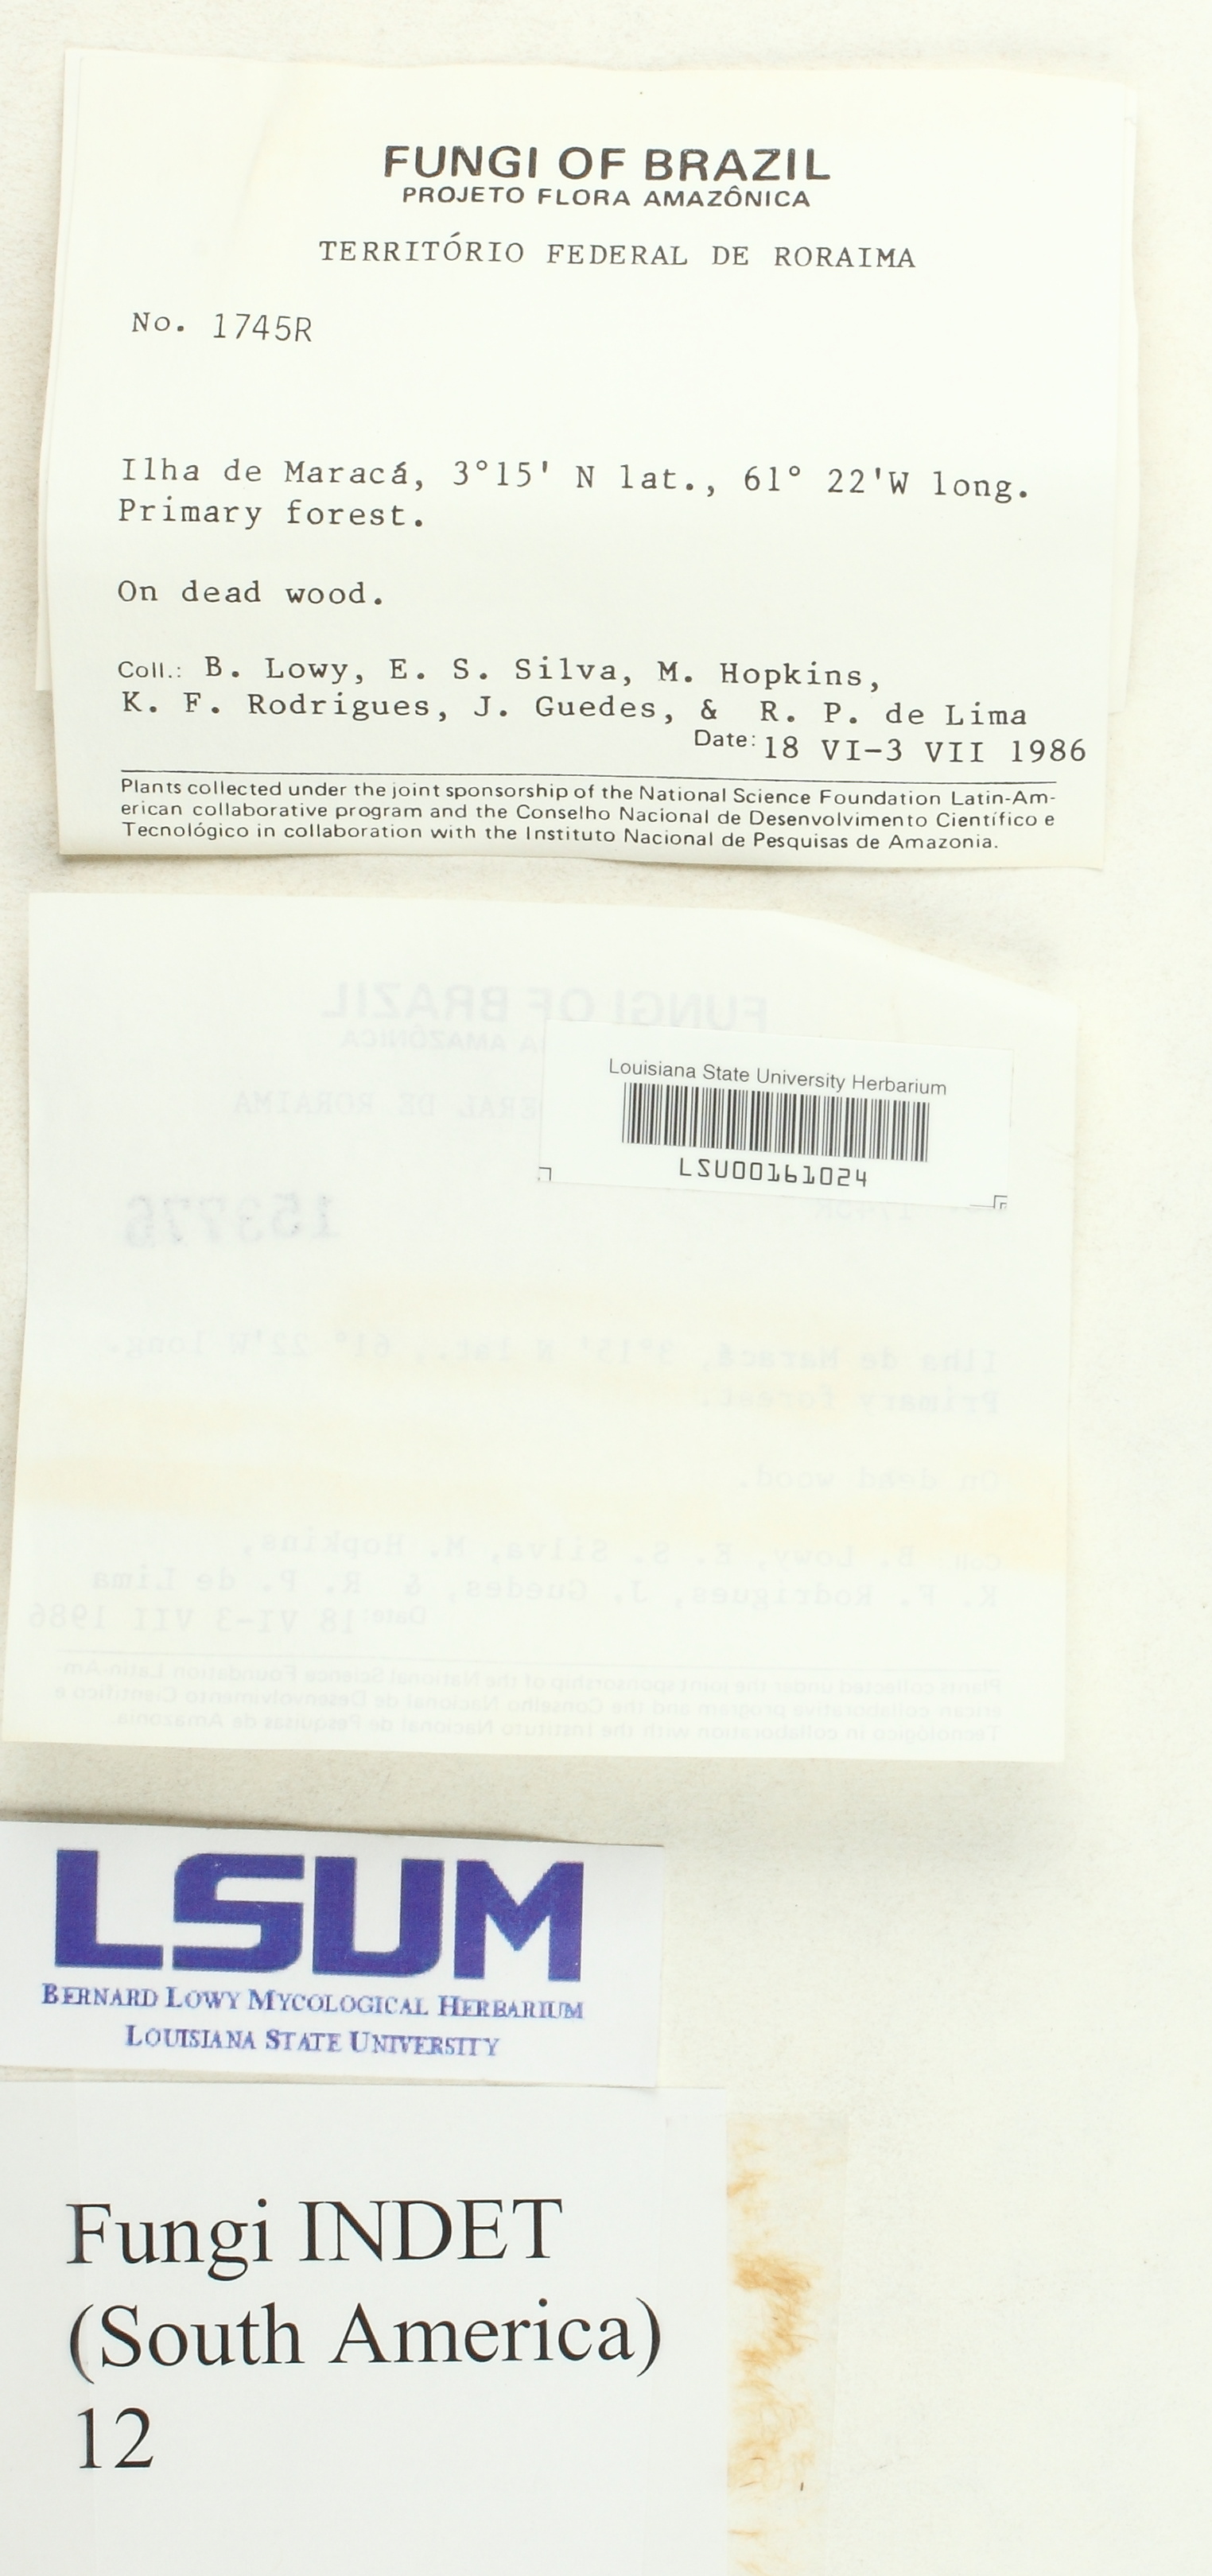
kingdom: Fungi
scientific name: Fungi
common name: Fungi
